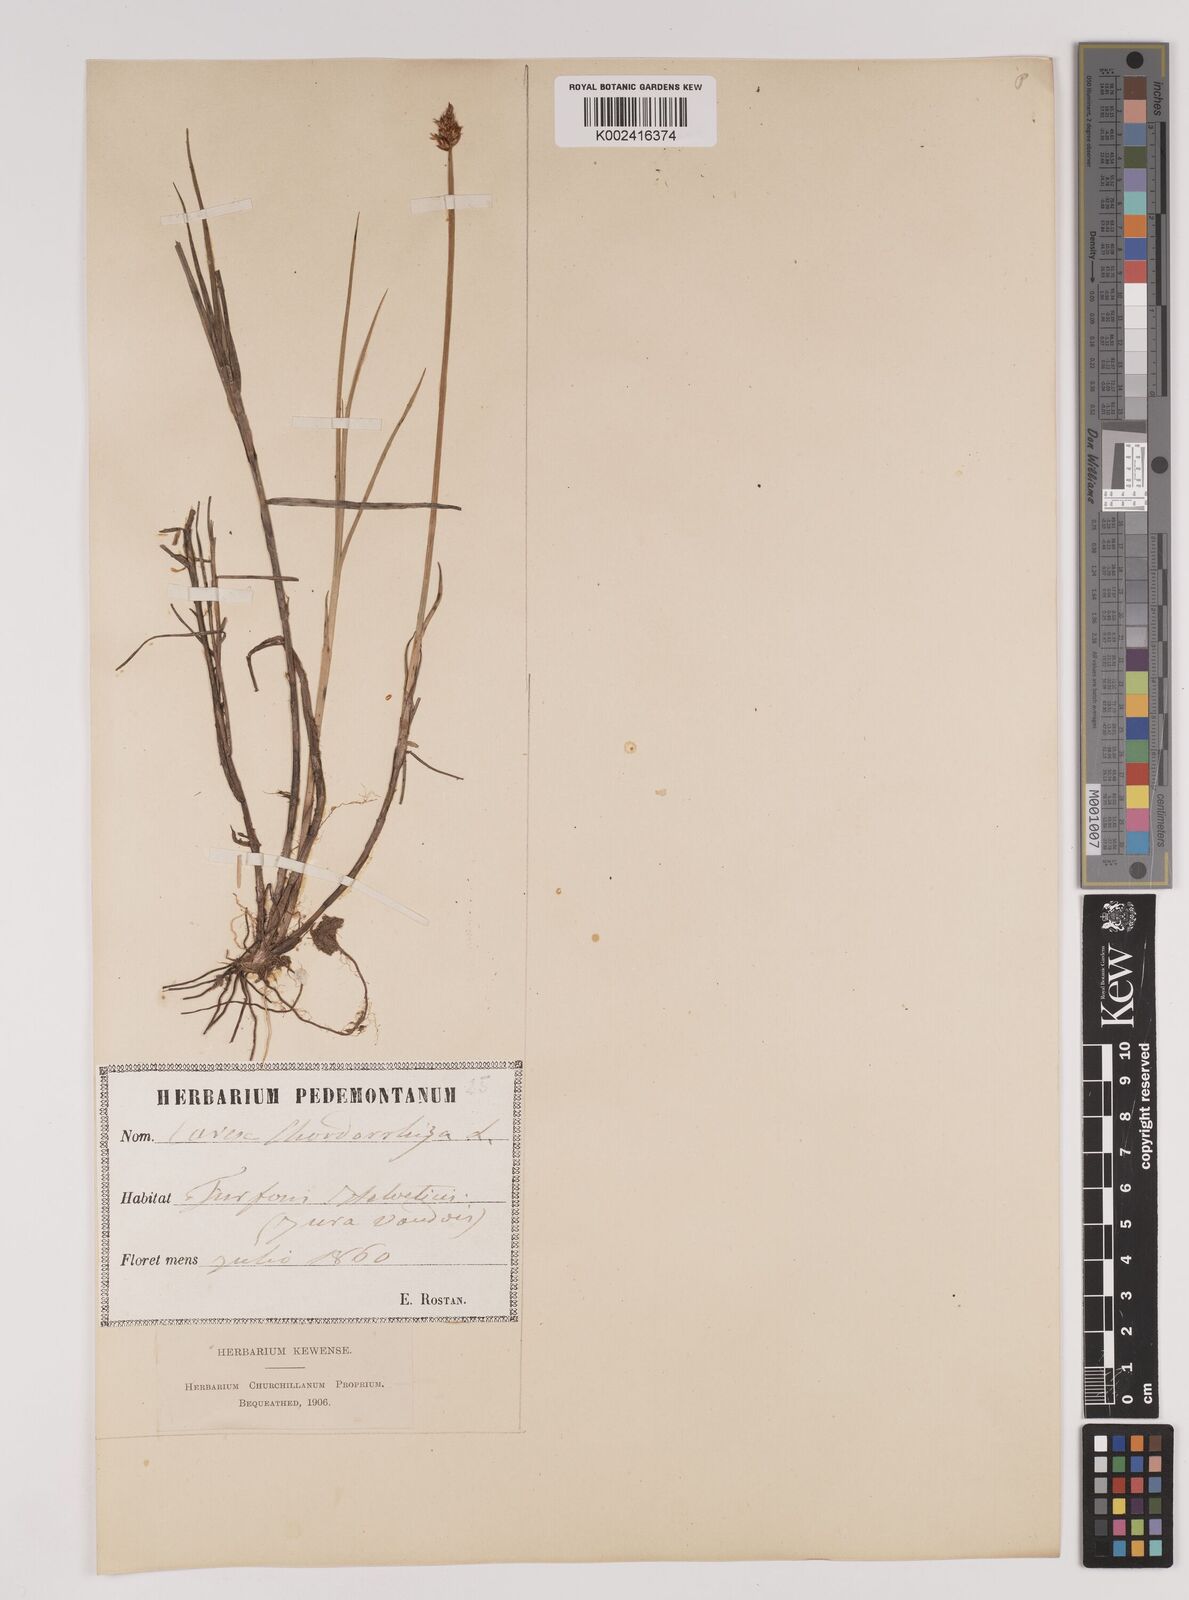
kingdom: Plantae
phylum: Tracheophyta
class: Liliopsida
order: Poales
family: Cyperaceae
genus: Carex
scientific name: Carex chordorrhiza
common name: String sedge
